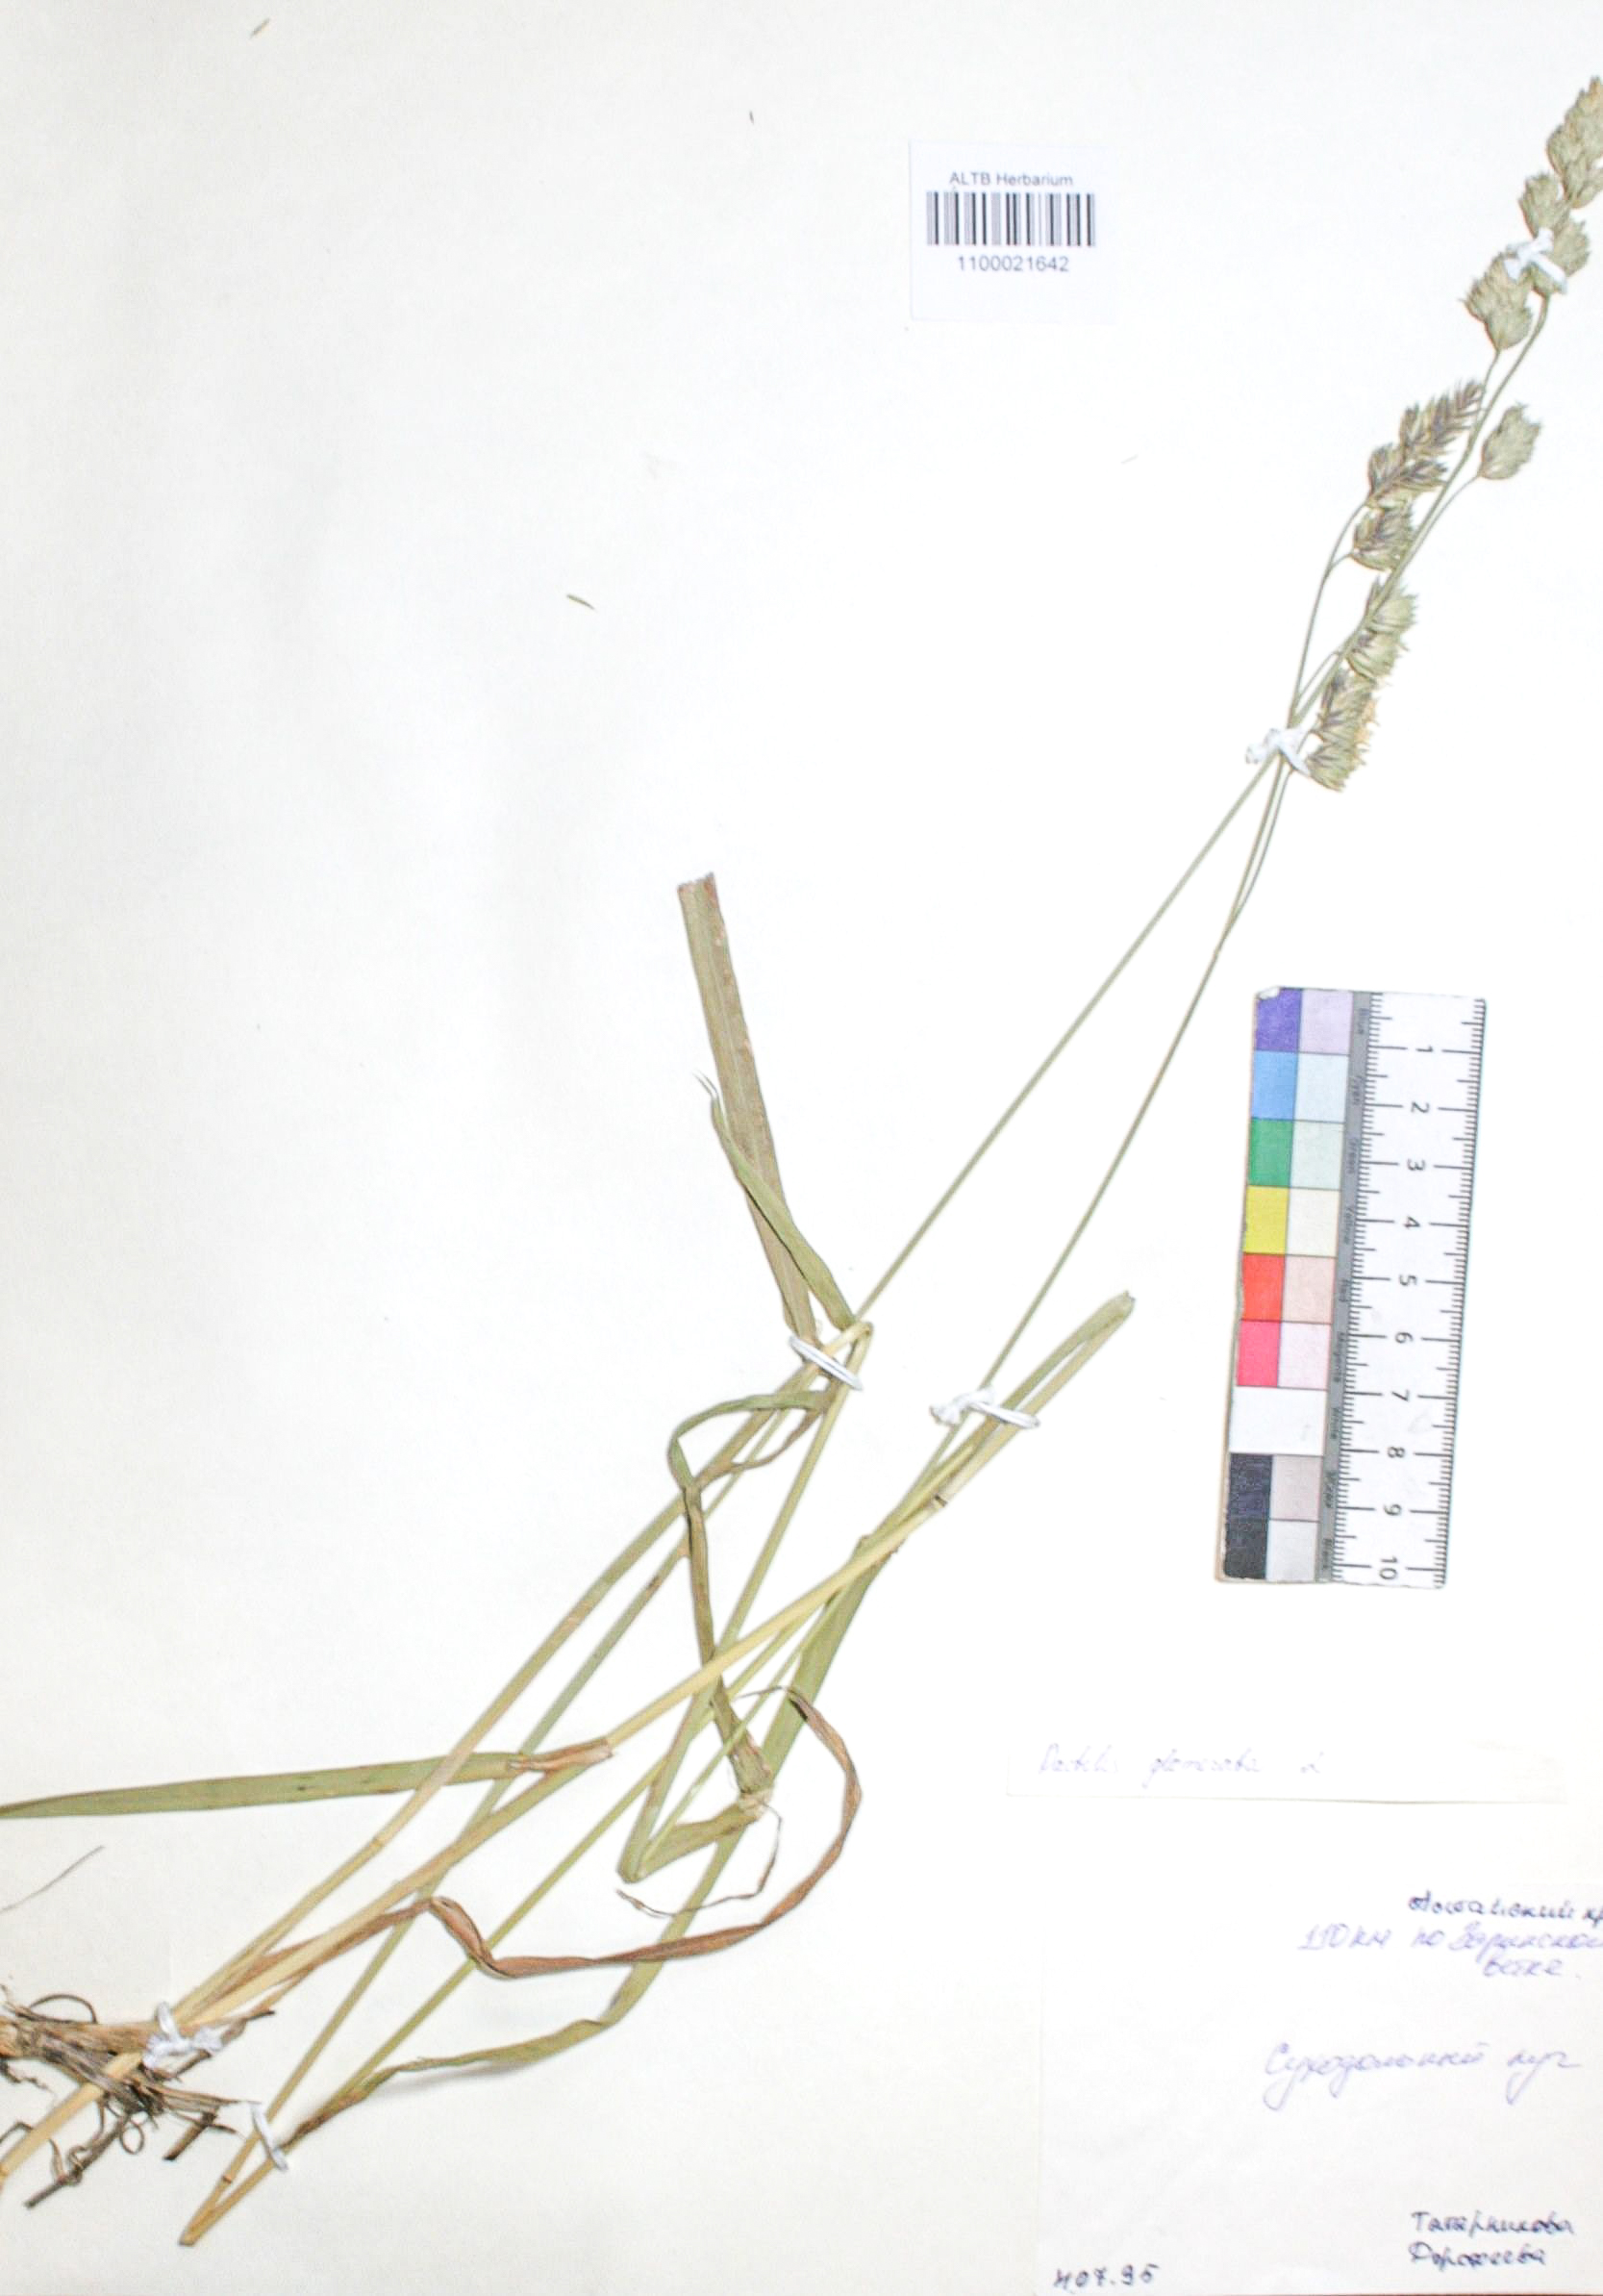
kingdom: Plantae
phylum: Tracheophyta
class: Liliopsida
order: Poales
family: Poaceae
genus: Dactylis
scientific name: Dactylis glomerata
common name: Orchardgrass
